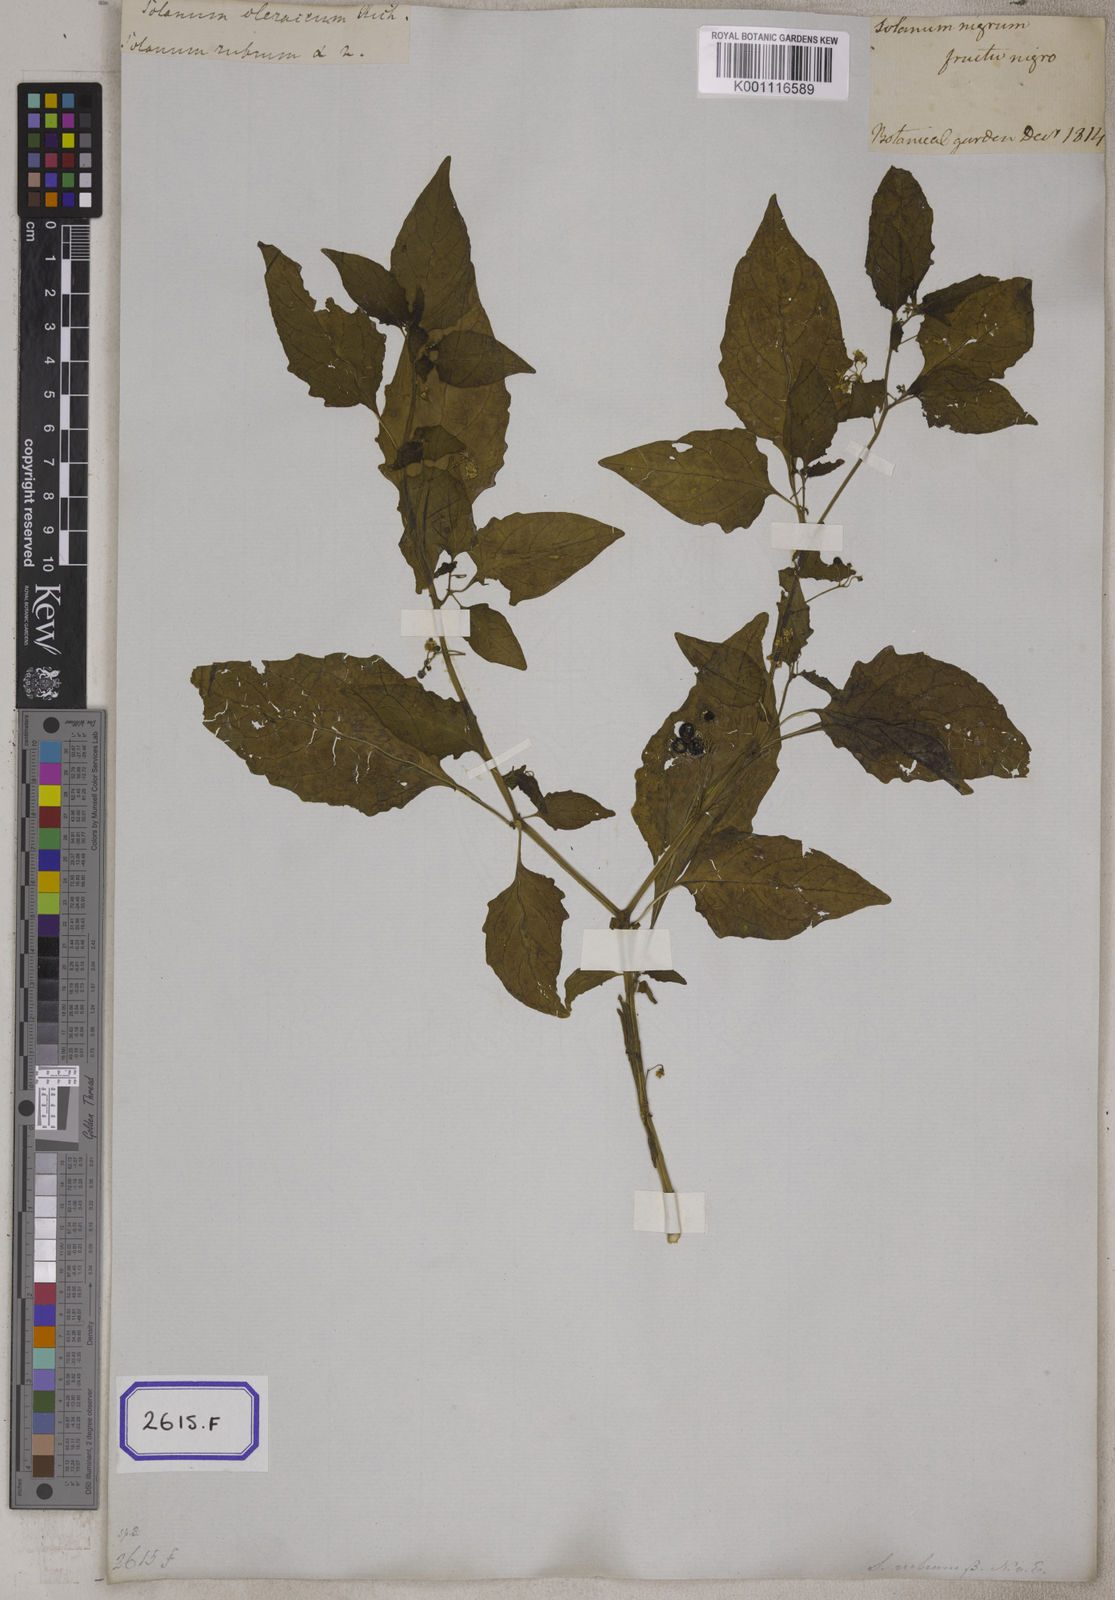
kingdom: Plantae
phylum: Tracheophyta
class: Magnoliopsida
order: Solanales
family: Solanaceae
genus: Solanum
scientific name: Solanum nigrum
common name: Black nightshade
